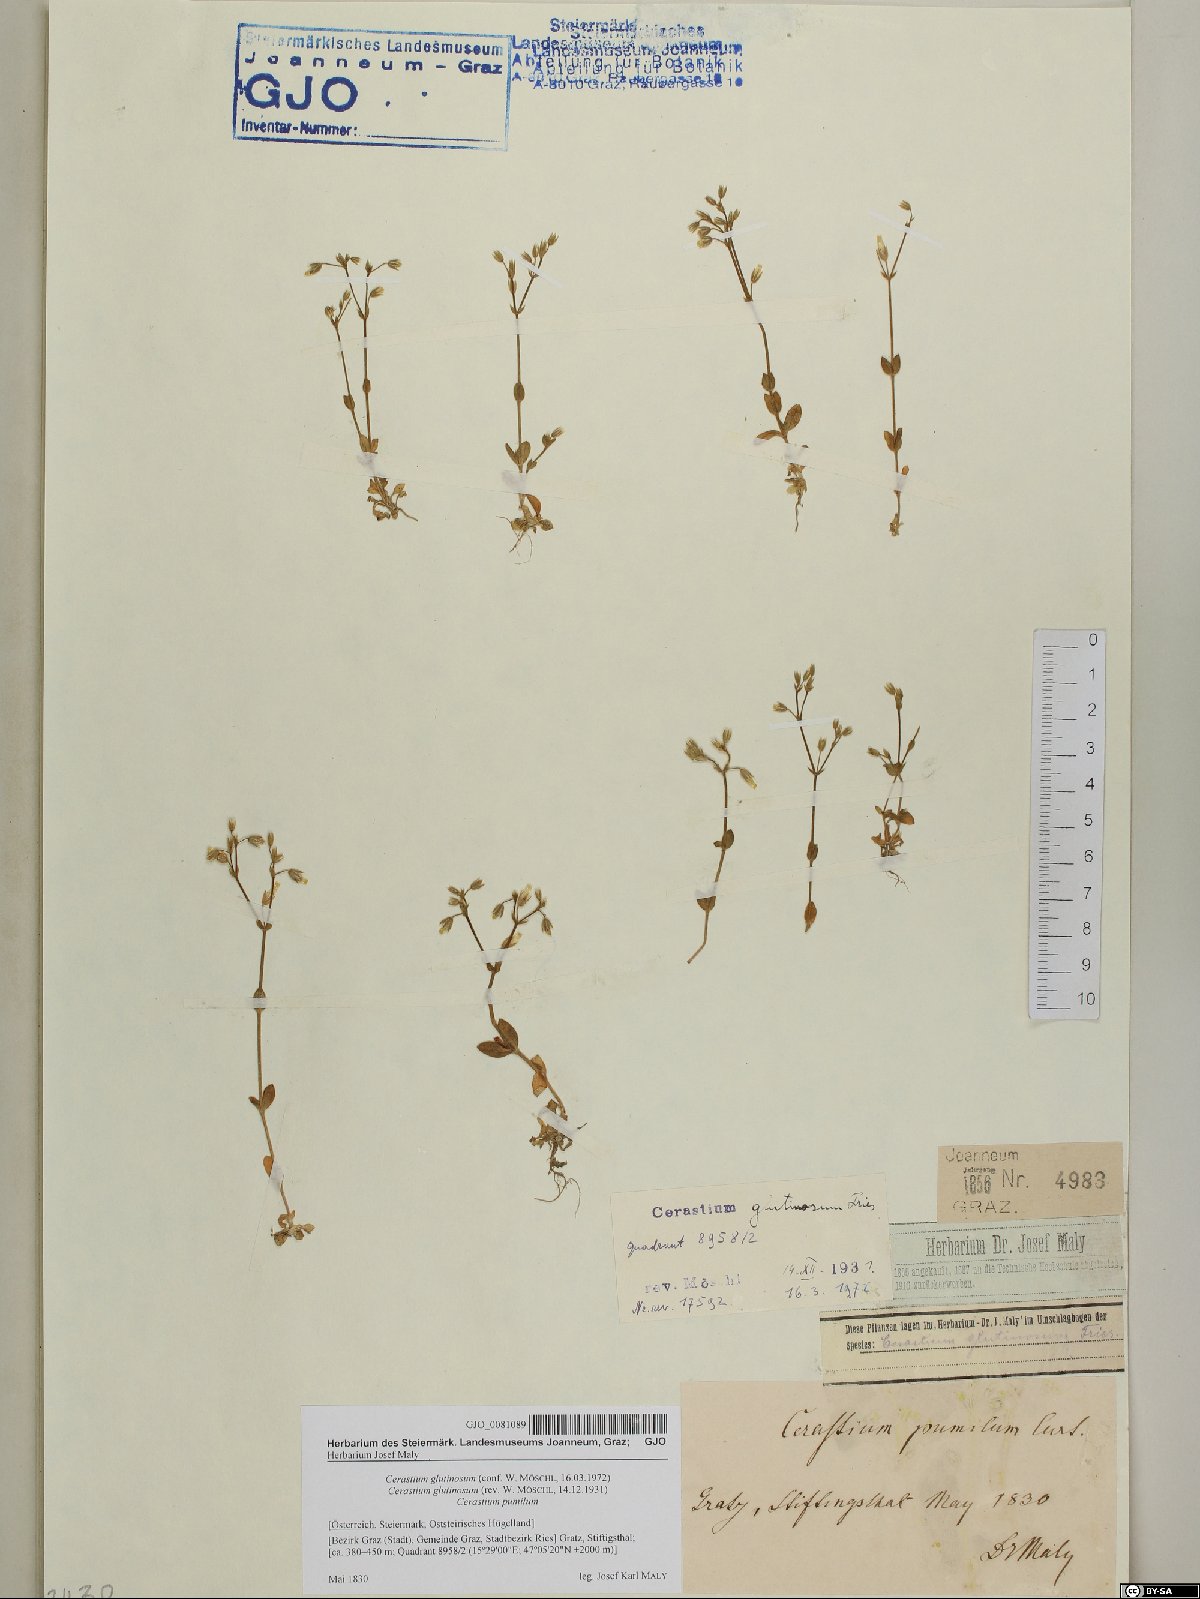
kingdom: Plantae
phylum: Tracheophyta
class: Magnoliopsida
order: Caryophyllales
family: Caryophyllaceae
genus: Cerastium
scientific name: Cerastium glutinosum
